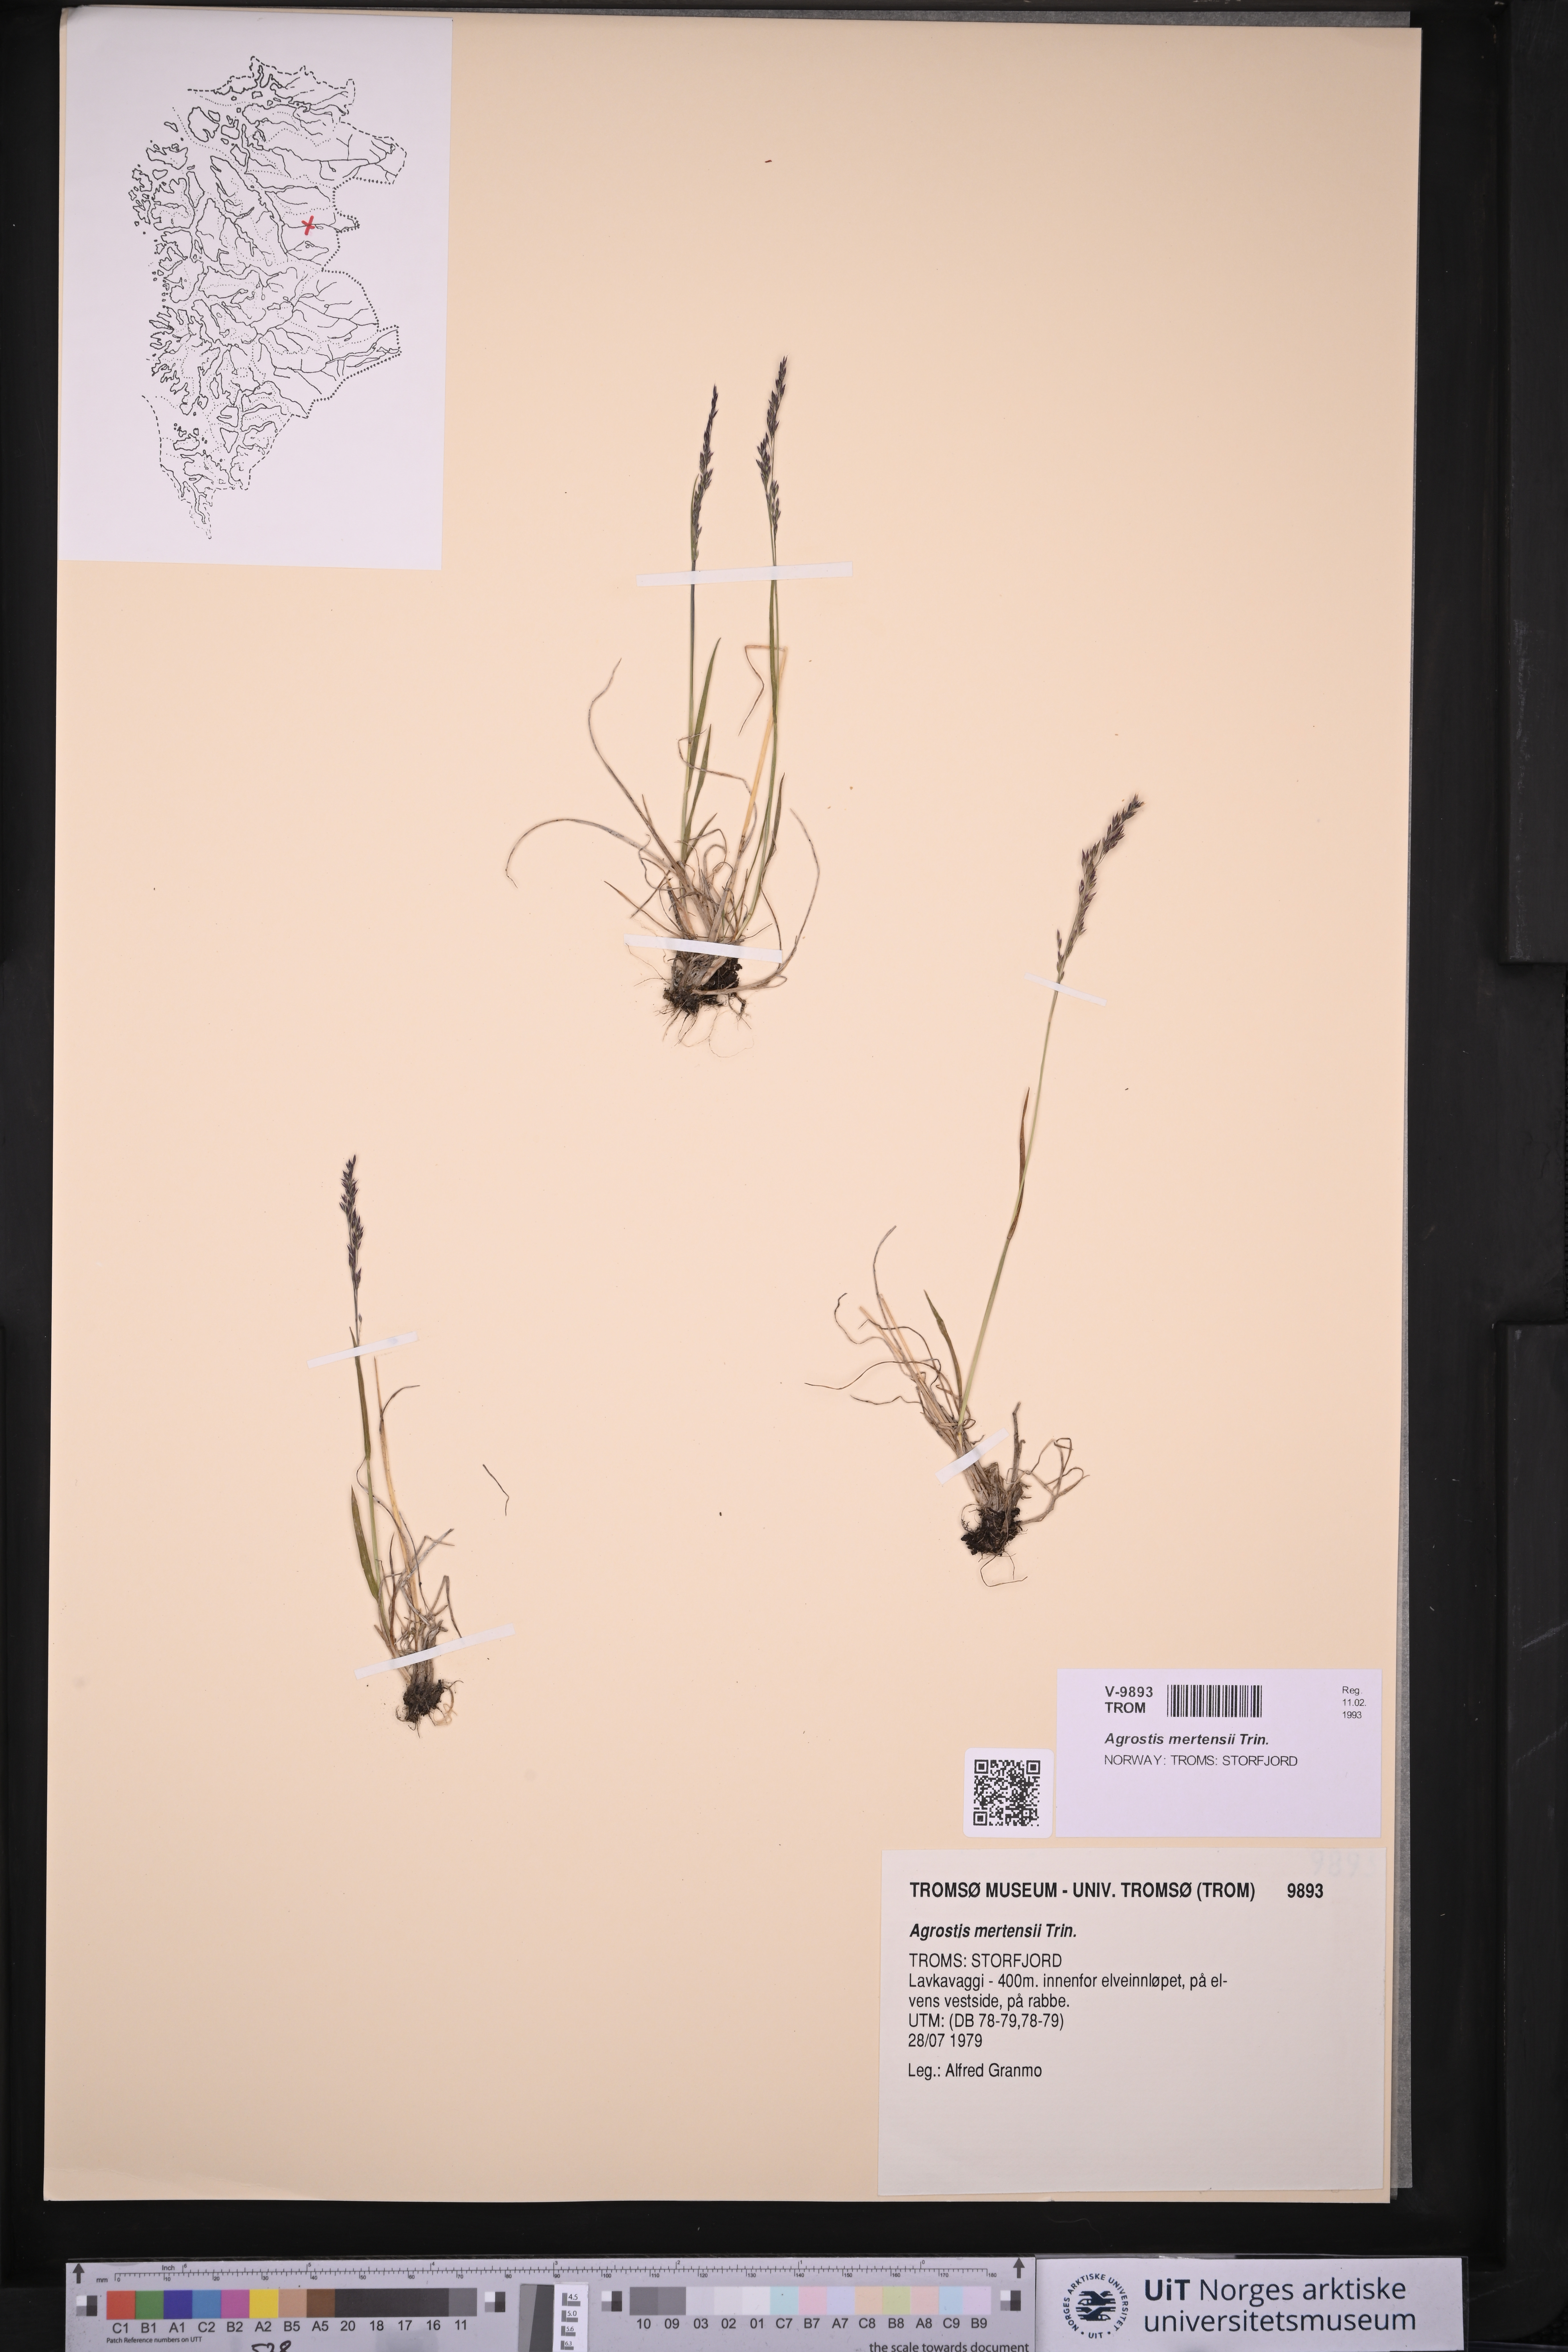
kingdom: Plantae
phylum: Tracheophyta
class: Liliopsida
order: Poales
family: Poaceae
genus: Agrostis
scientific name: Agrostis mertensii
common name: Northern bent
